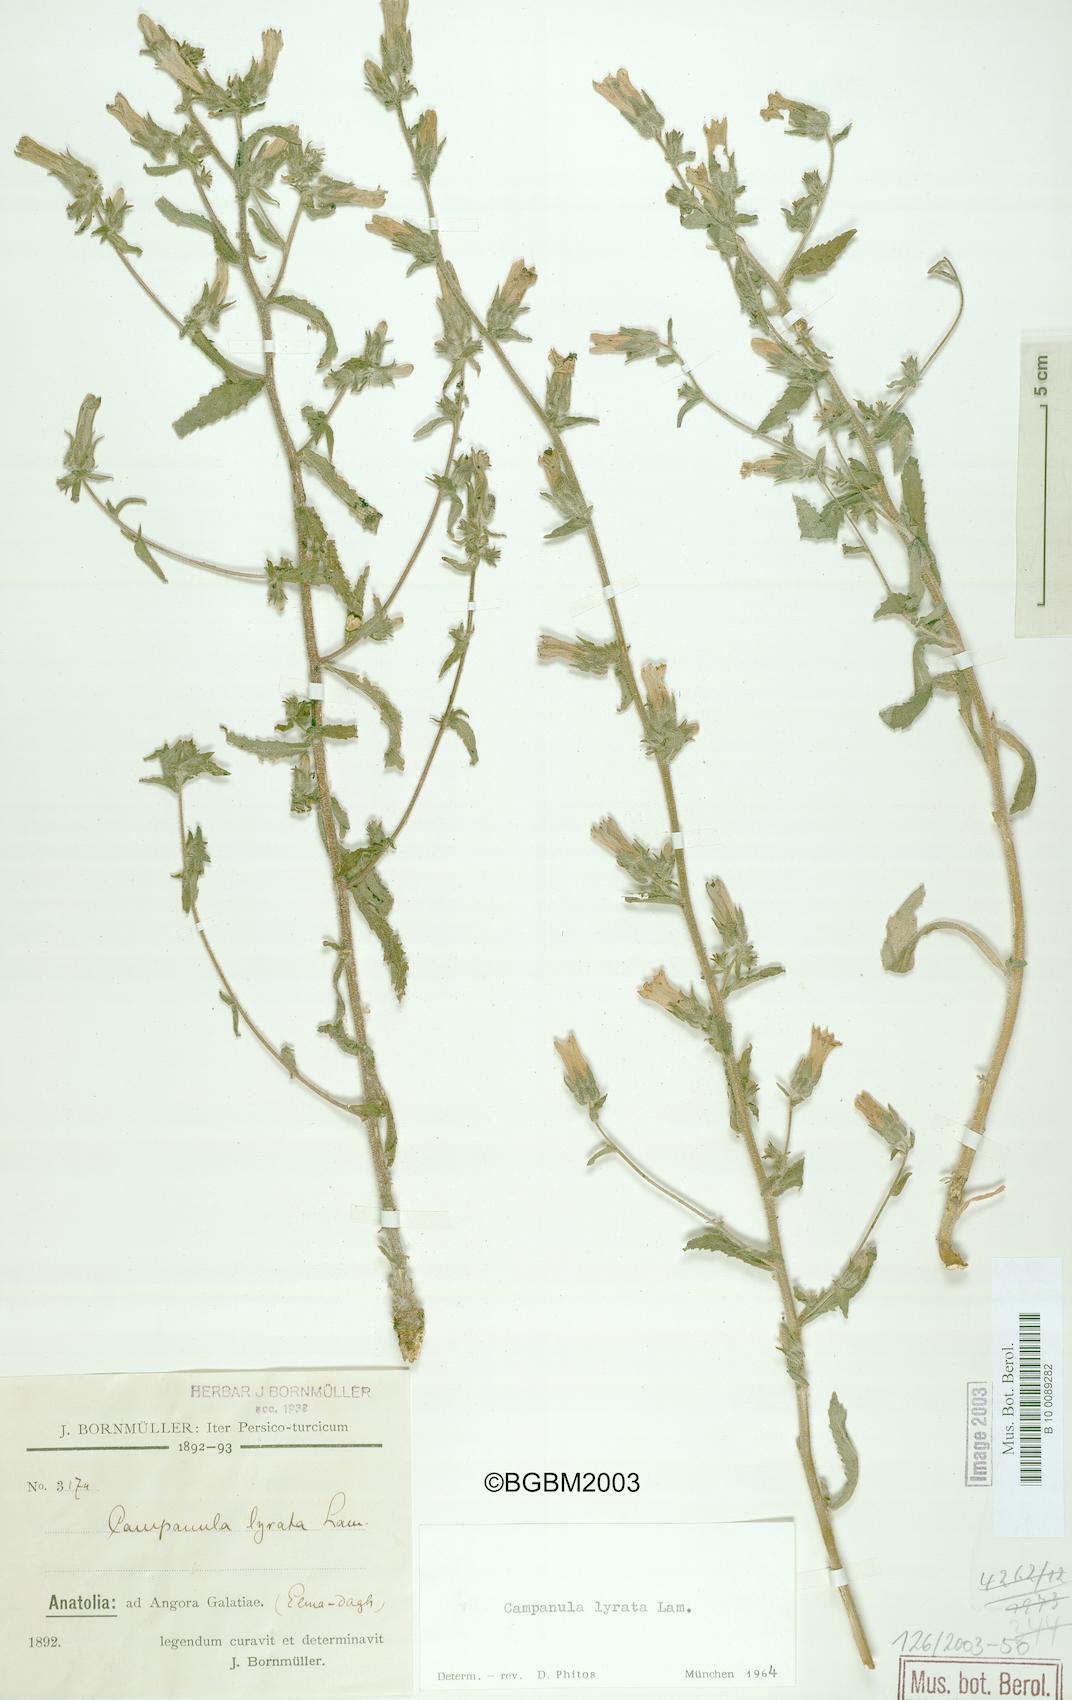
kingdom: Plantae
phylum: Tracheophyta
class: Magnoliopsida
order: Asterales
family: Campanulaceae
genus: Campanula
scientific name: Campanula lyrata
